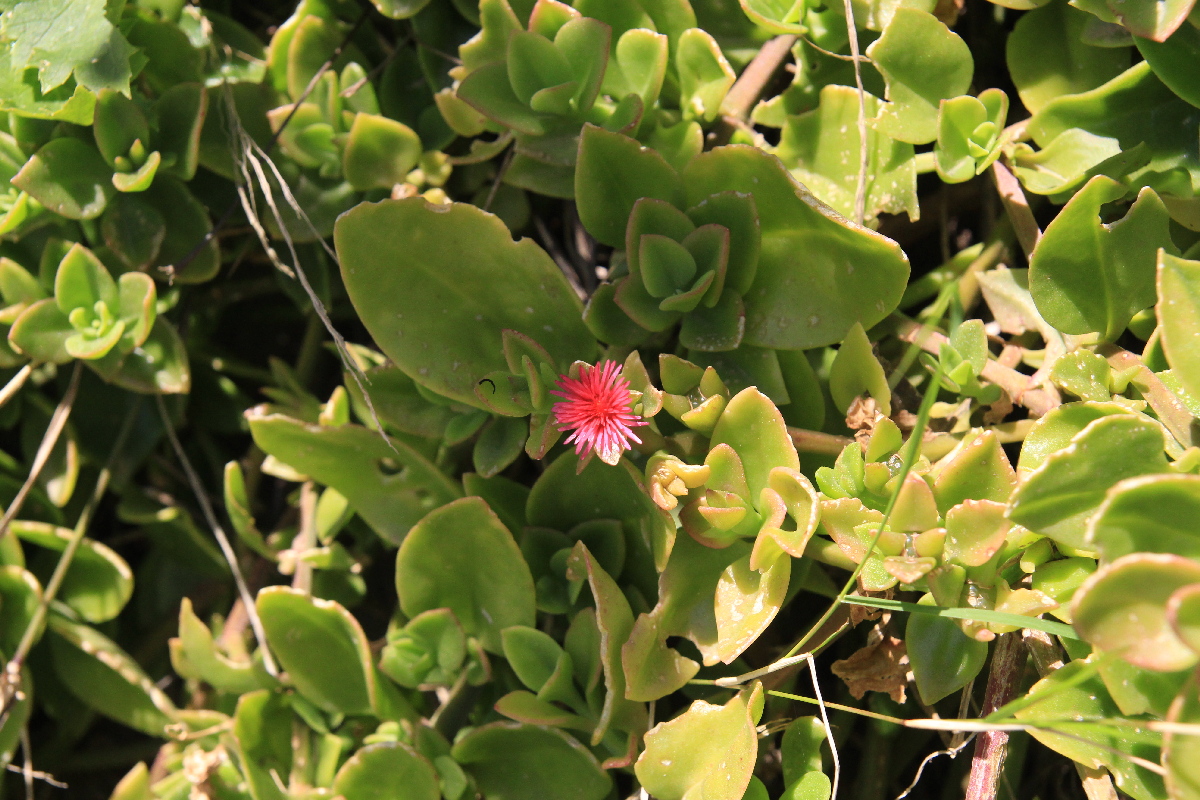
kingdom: Plantae
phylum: Tracheophyta
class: Magnoliopsida
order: Caryophyllales
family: Aizoaceae
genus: Mesembryanthemum
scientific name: Mesembryanthemum cordifolium
